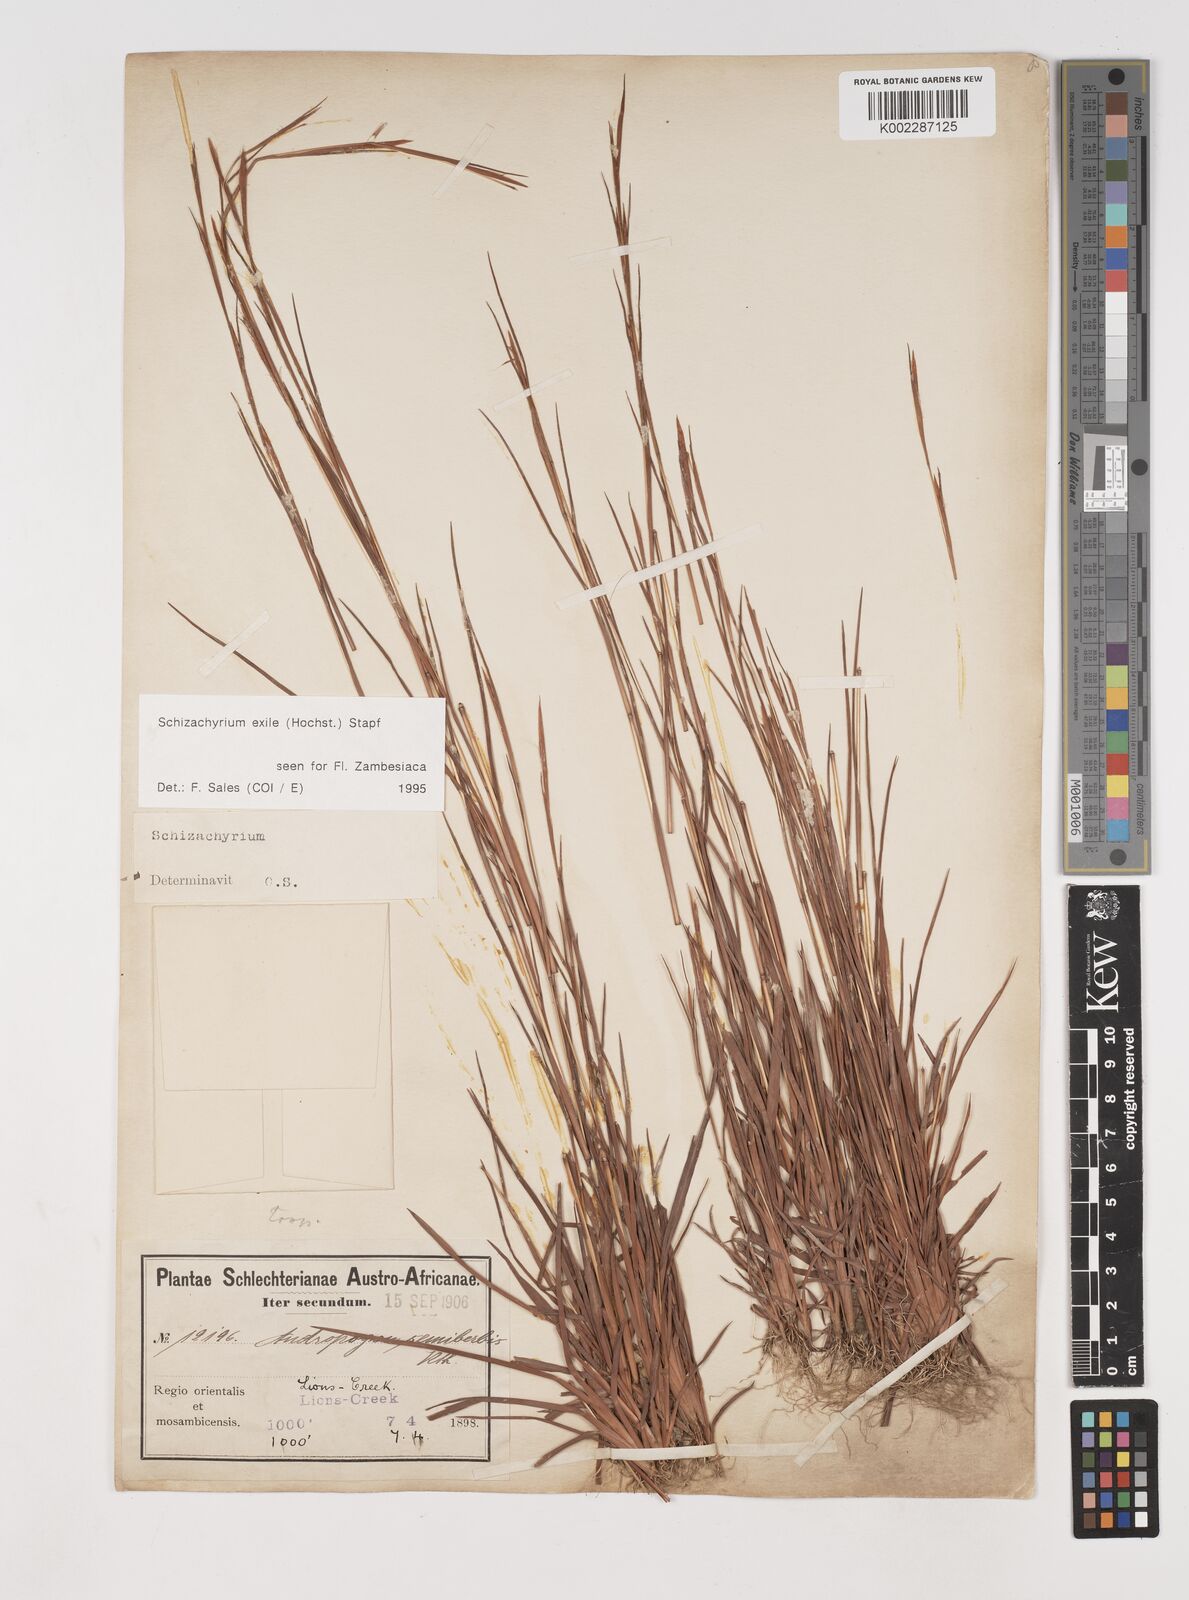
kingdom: Plantae
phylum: Tracheophyta
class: Liliopsida
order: Poales
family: Poaceae
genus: Schizachyrium
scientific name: Schizachyrium exile
